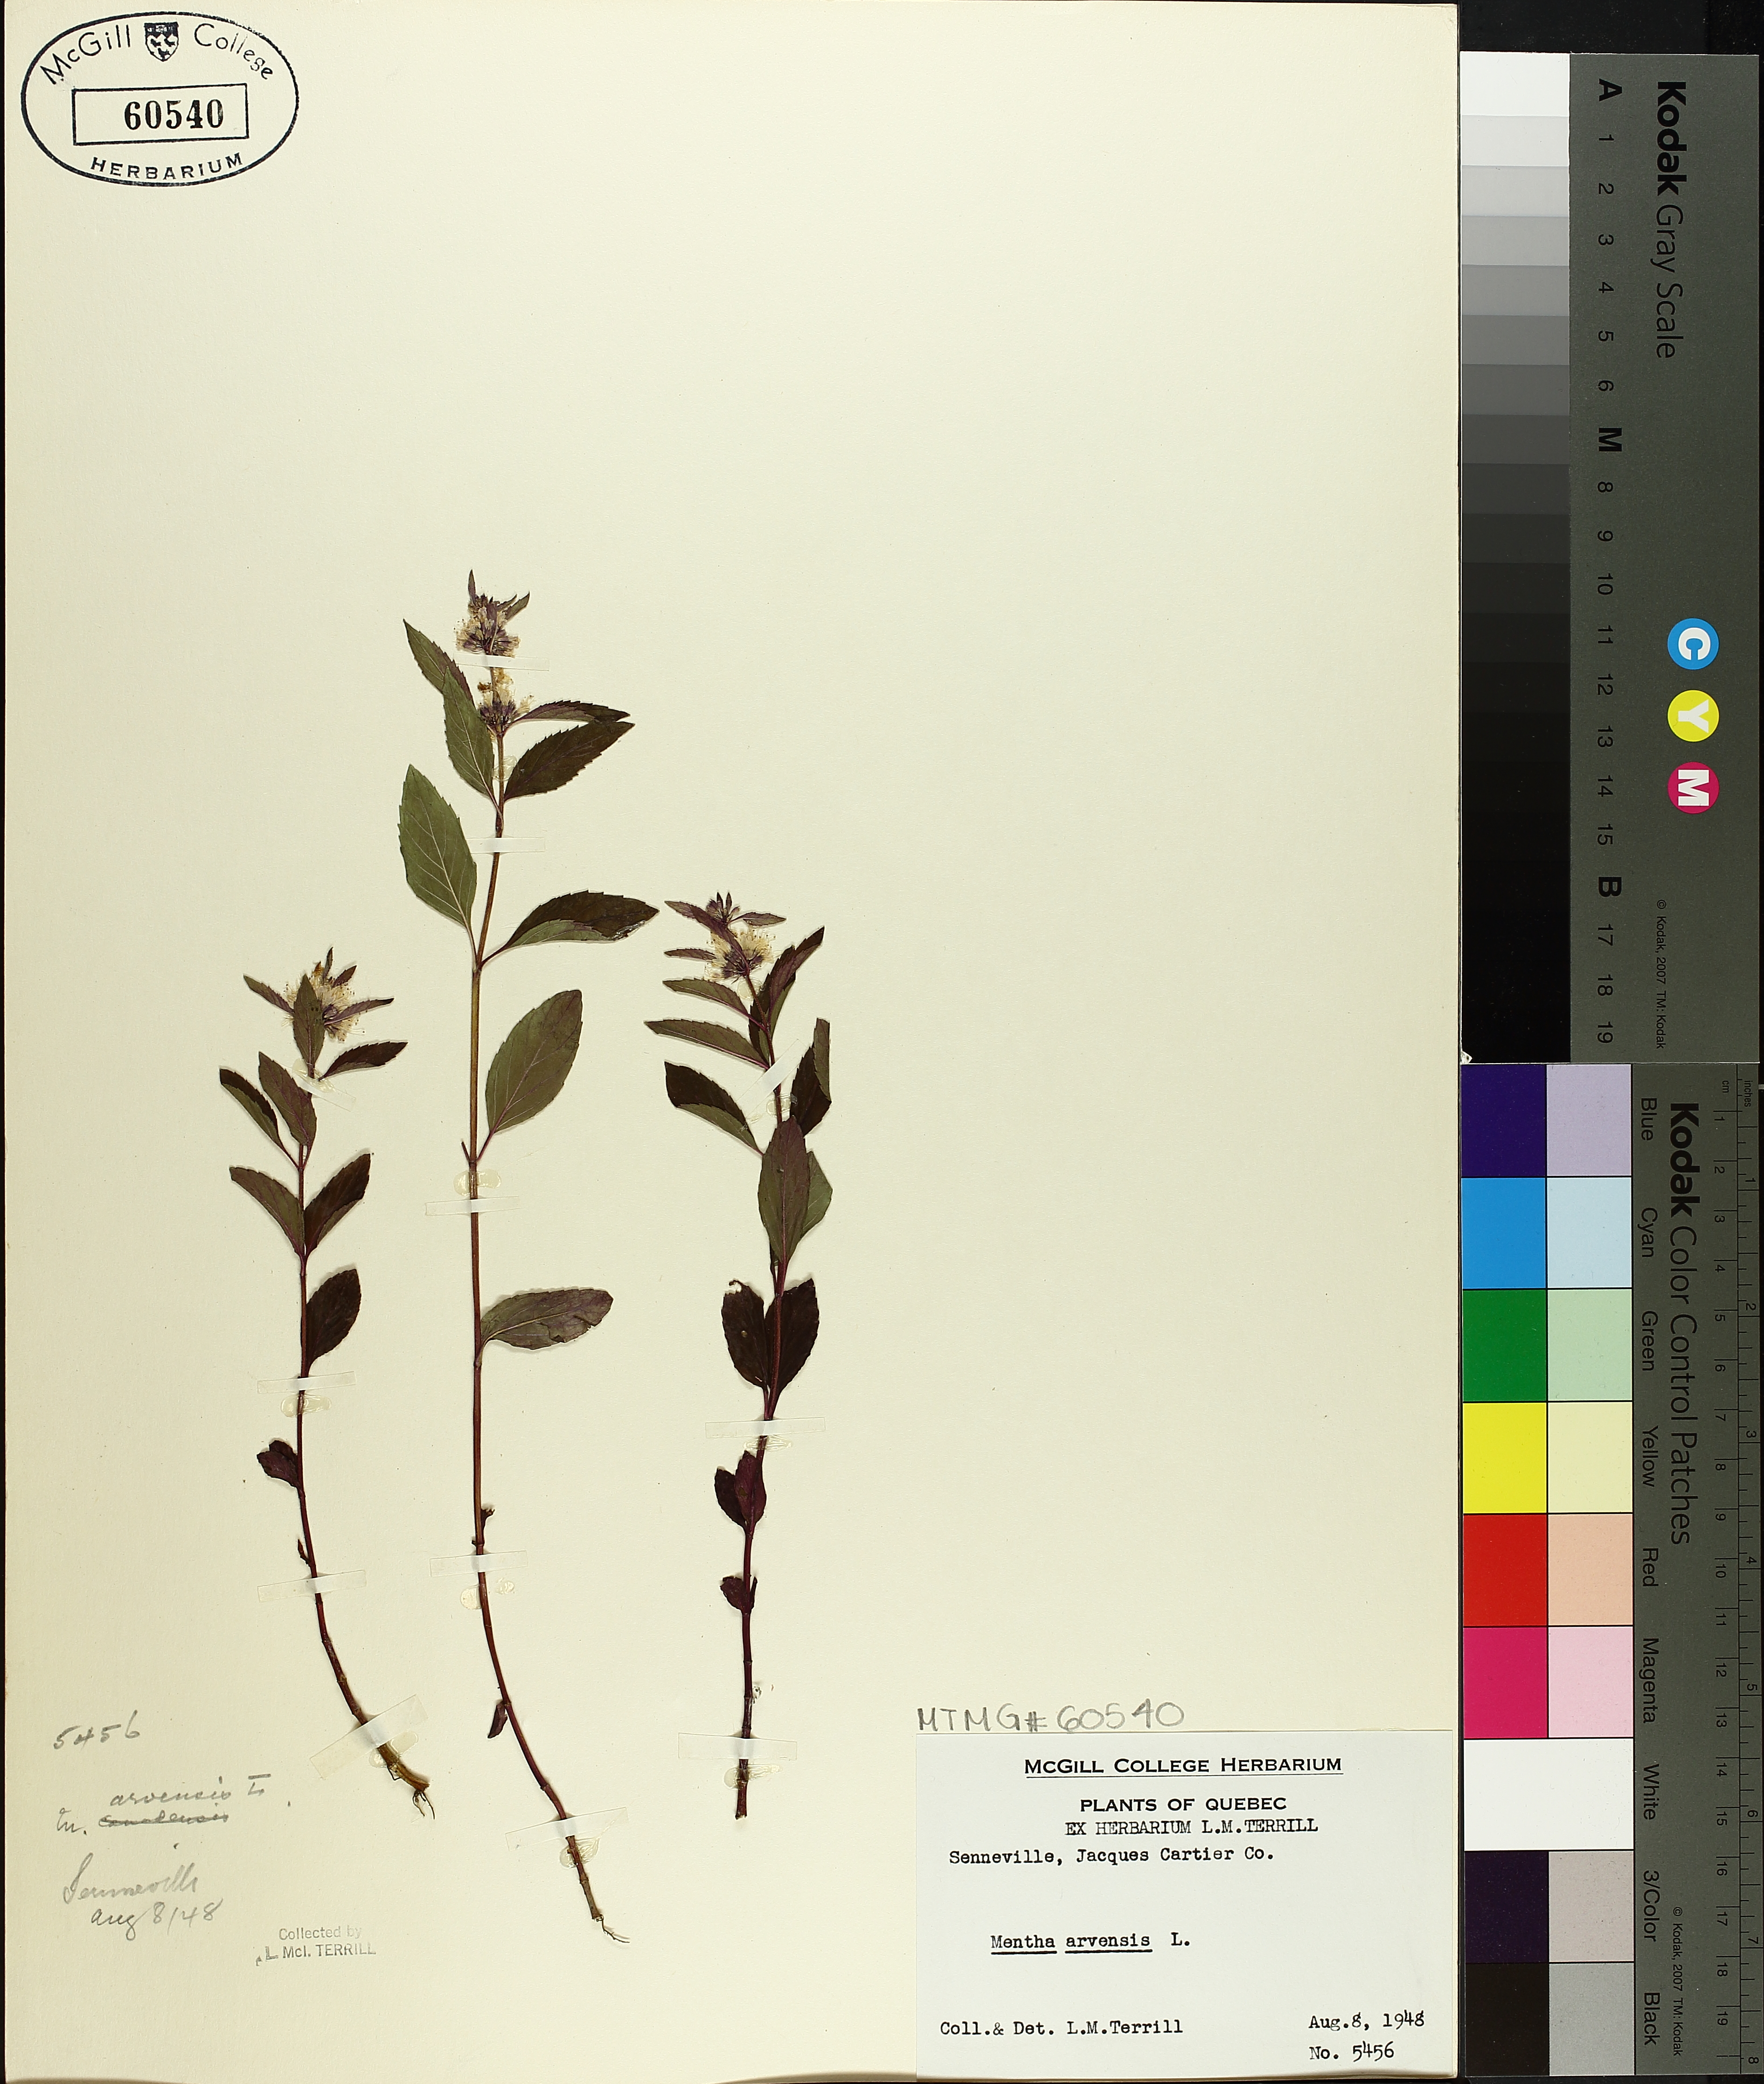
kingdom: Plantae
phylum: Tracheophyta
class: Magnoliopsida
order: Lamiales
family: Lamiaceae
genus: Mentha
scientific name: Mentha arvensis
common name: Corn mint
